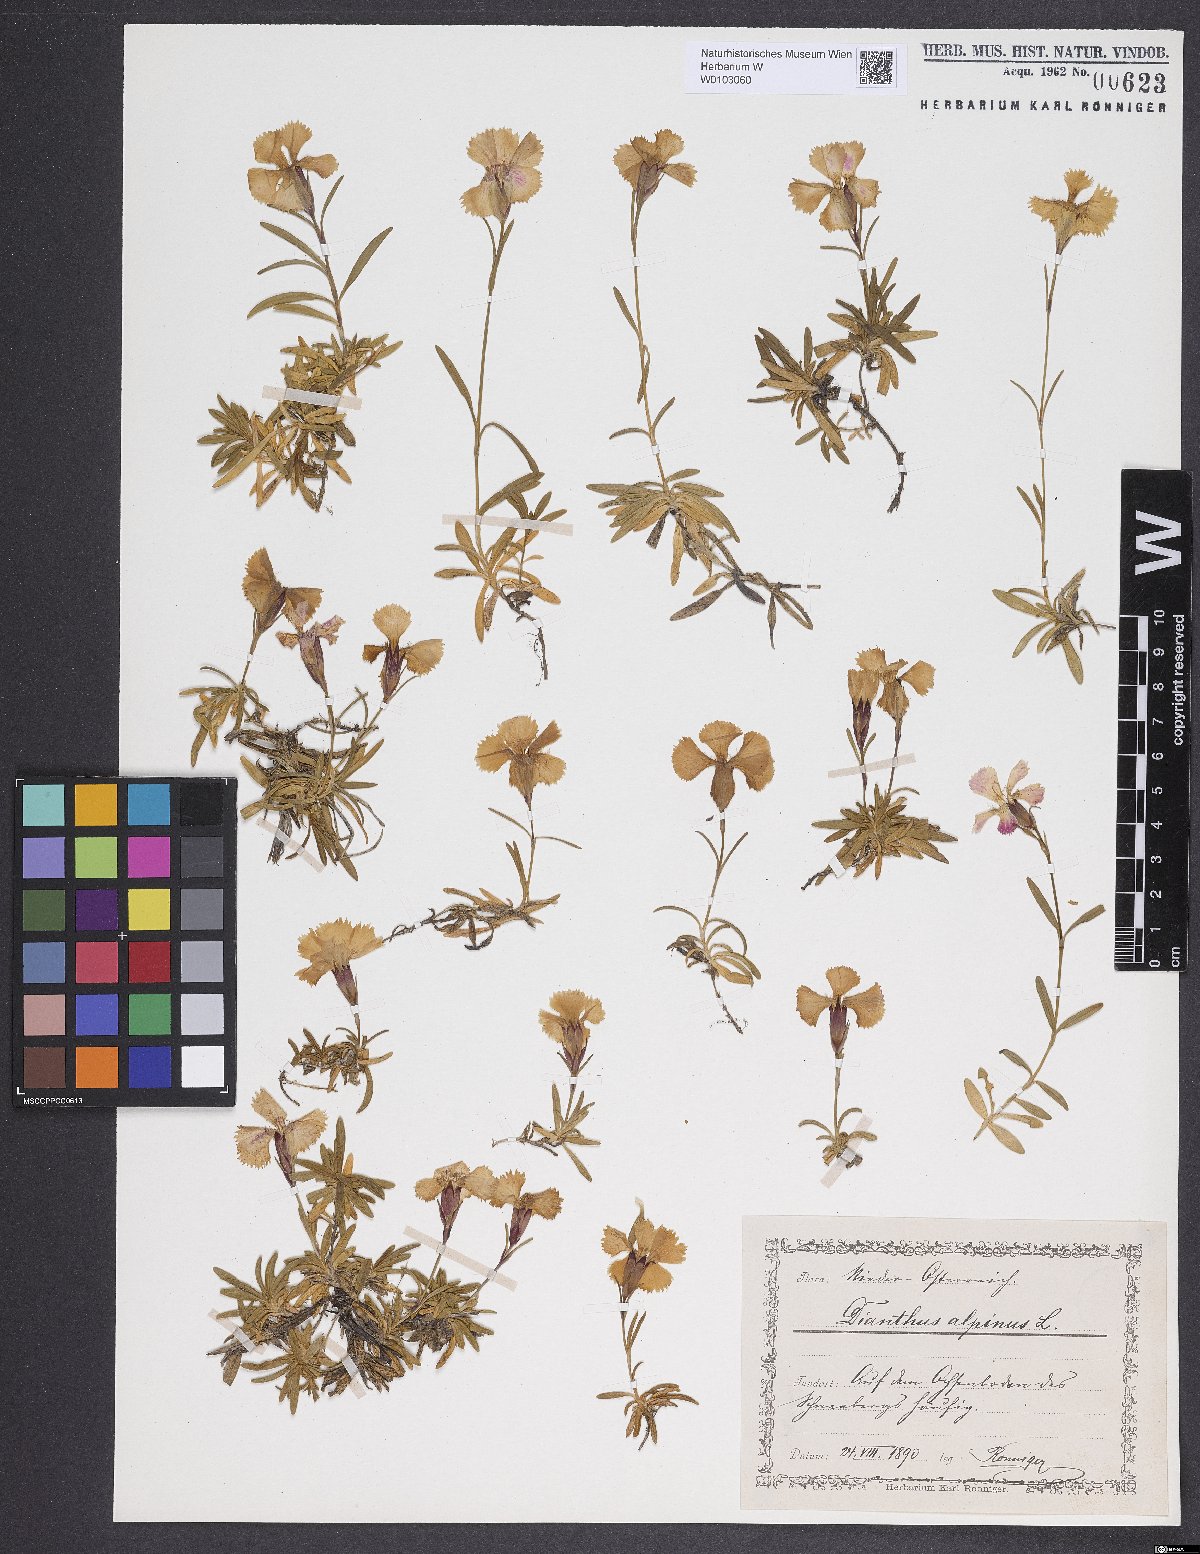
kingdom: Plantae
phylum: Tracheophyta
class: Magnoliopsida
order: Caryophyllales
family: Caryophyllaceae
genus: Dianthus
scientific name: Dianthus alpinus
